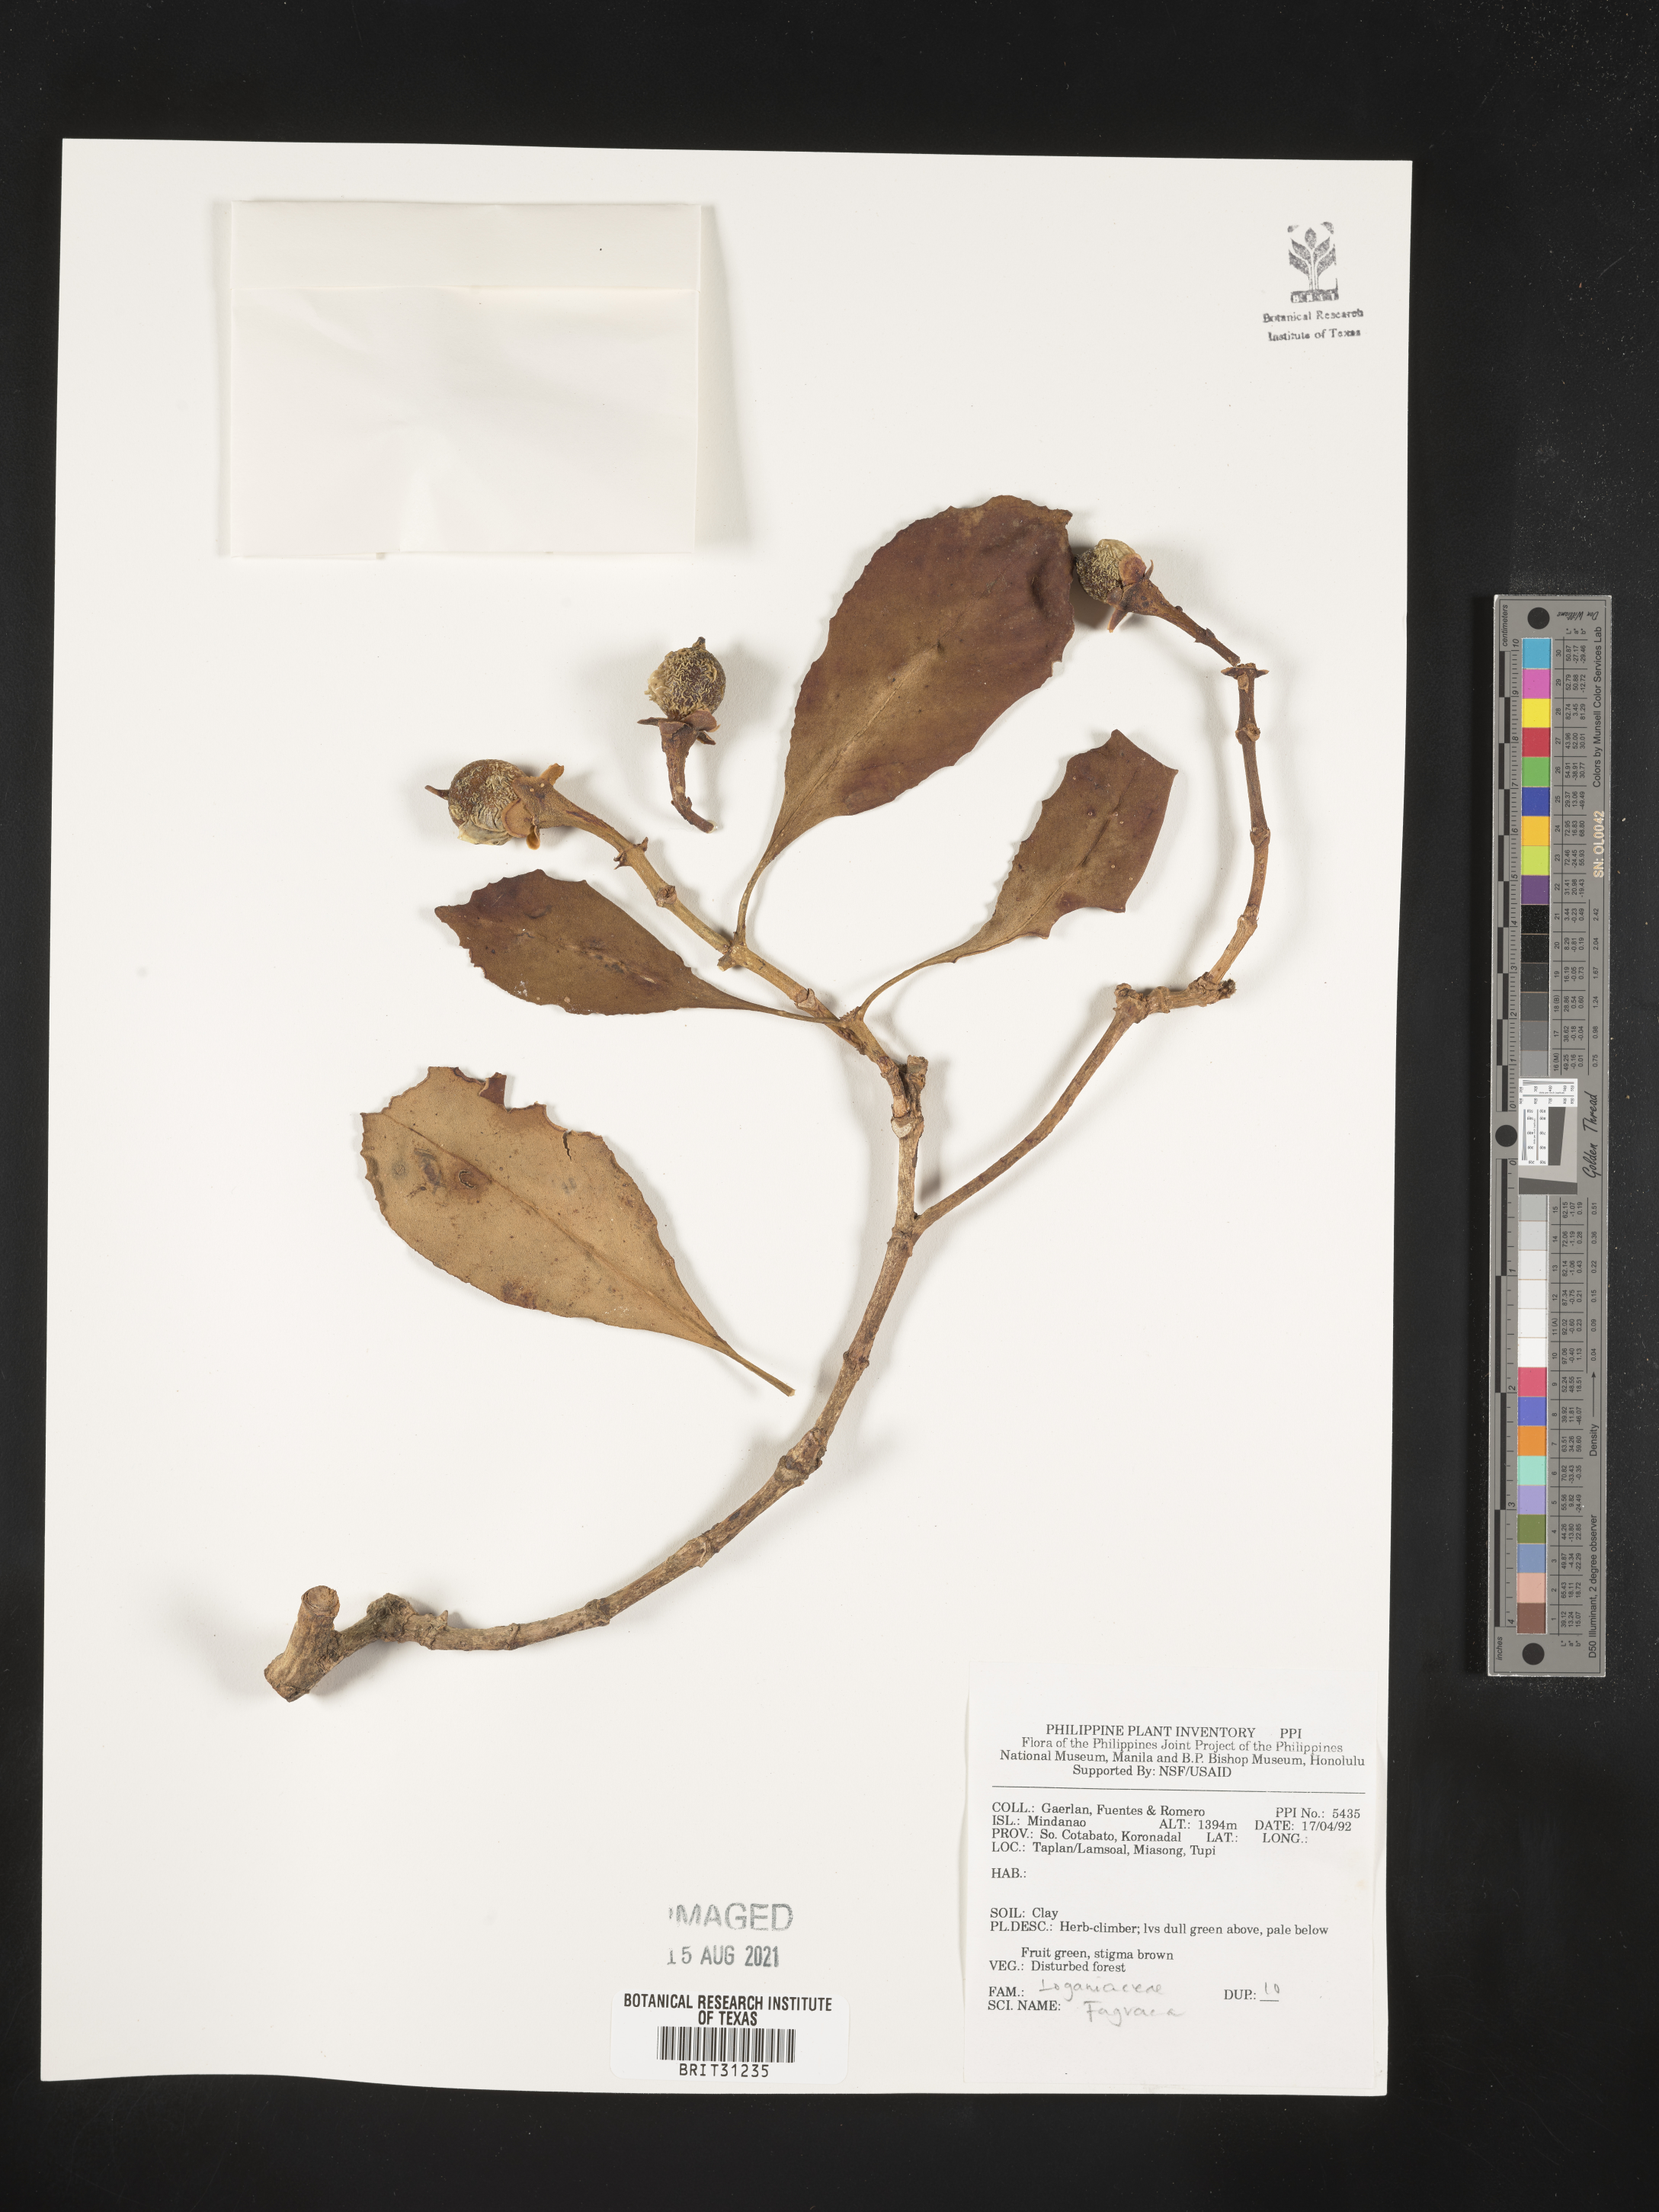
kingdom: Plantae
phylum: Tracheophyta
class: Magnoliopsida
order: Gentianales
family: Gentianaceae
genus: Fagraea
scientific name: Fagraea
